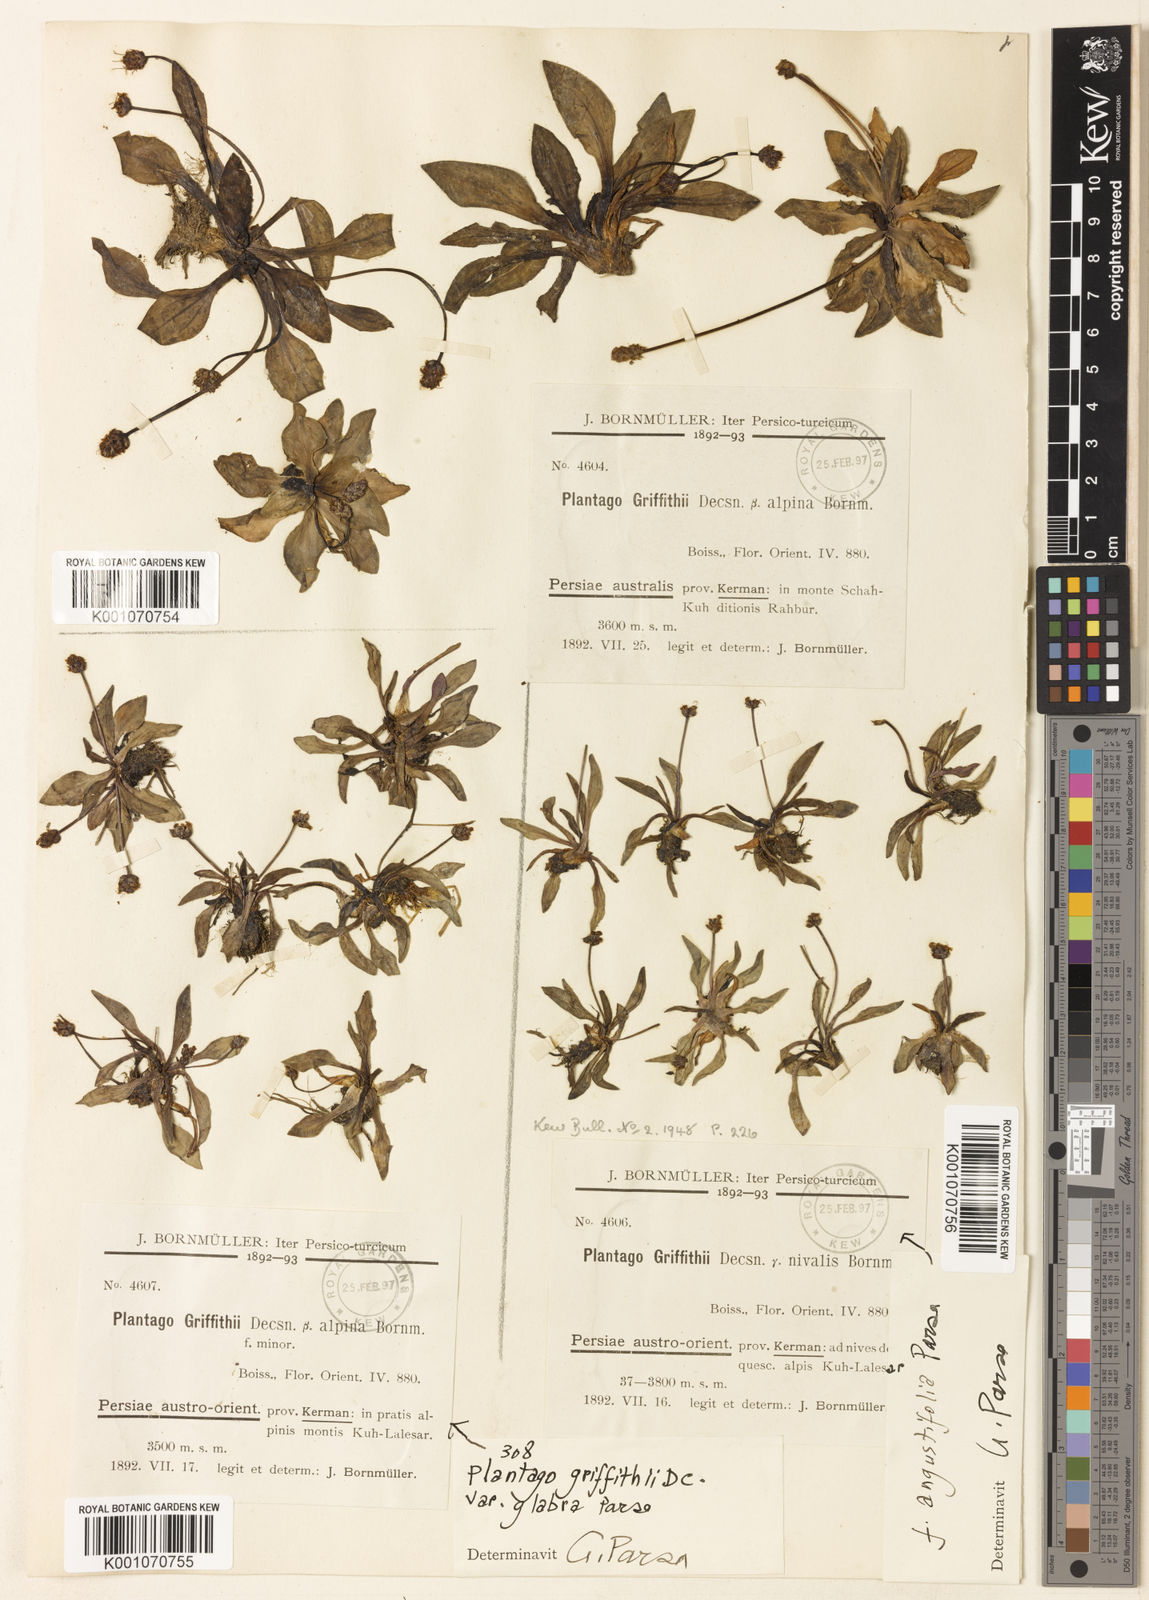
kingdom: Plantae
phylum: Tracheophyta
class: Magnoliopsida
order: Lamiales
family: Plantaginaceae
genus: Plantago
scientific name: Plantago
